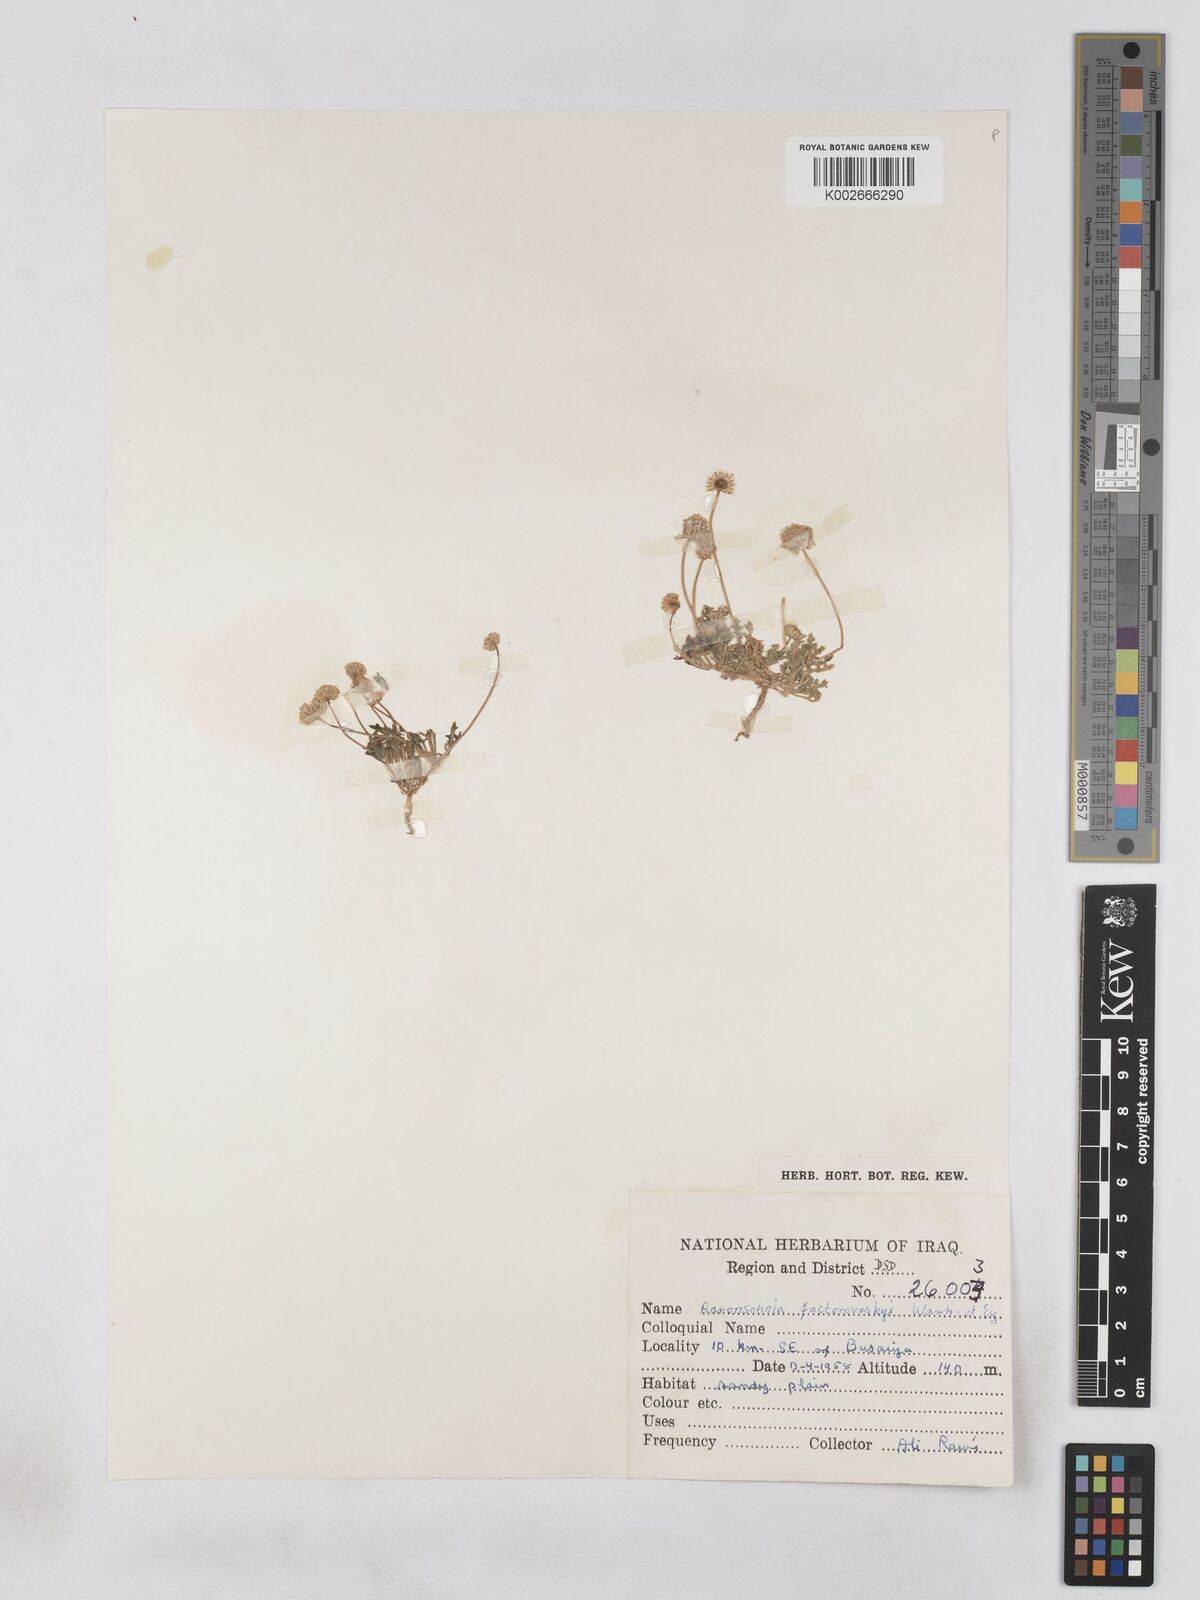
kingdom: Plantae
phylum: Tracheophyta
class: Magnoliopsida
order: Asterales
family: Asteraceae
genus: Otoglyphis
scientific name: Otoglyphis factorovskyi
